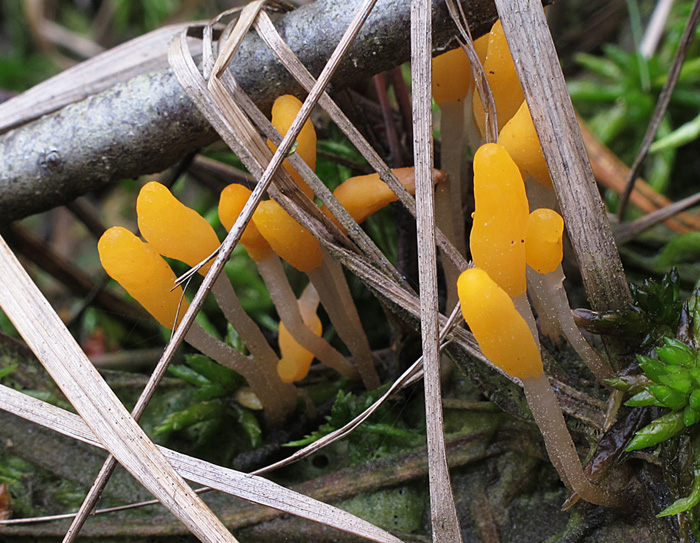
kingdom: Fungi
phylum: Ascomycota
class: Leotiomycetes
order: Helotiales
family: Cenangiaceae
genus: Mitrula
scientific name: Mitrula paludosa
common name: gul nøkketunge
